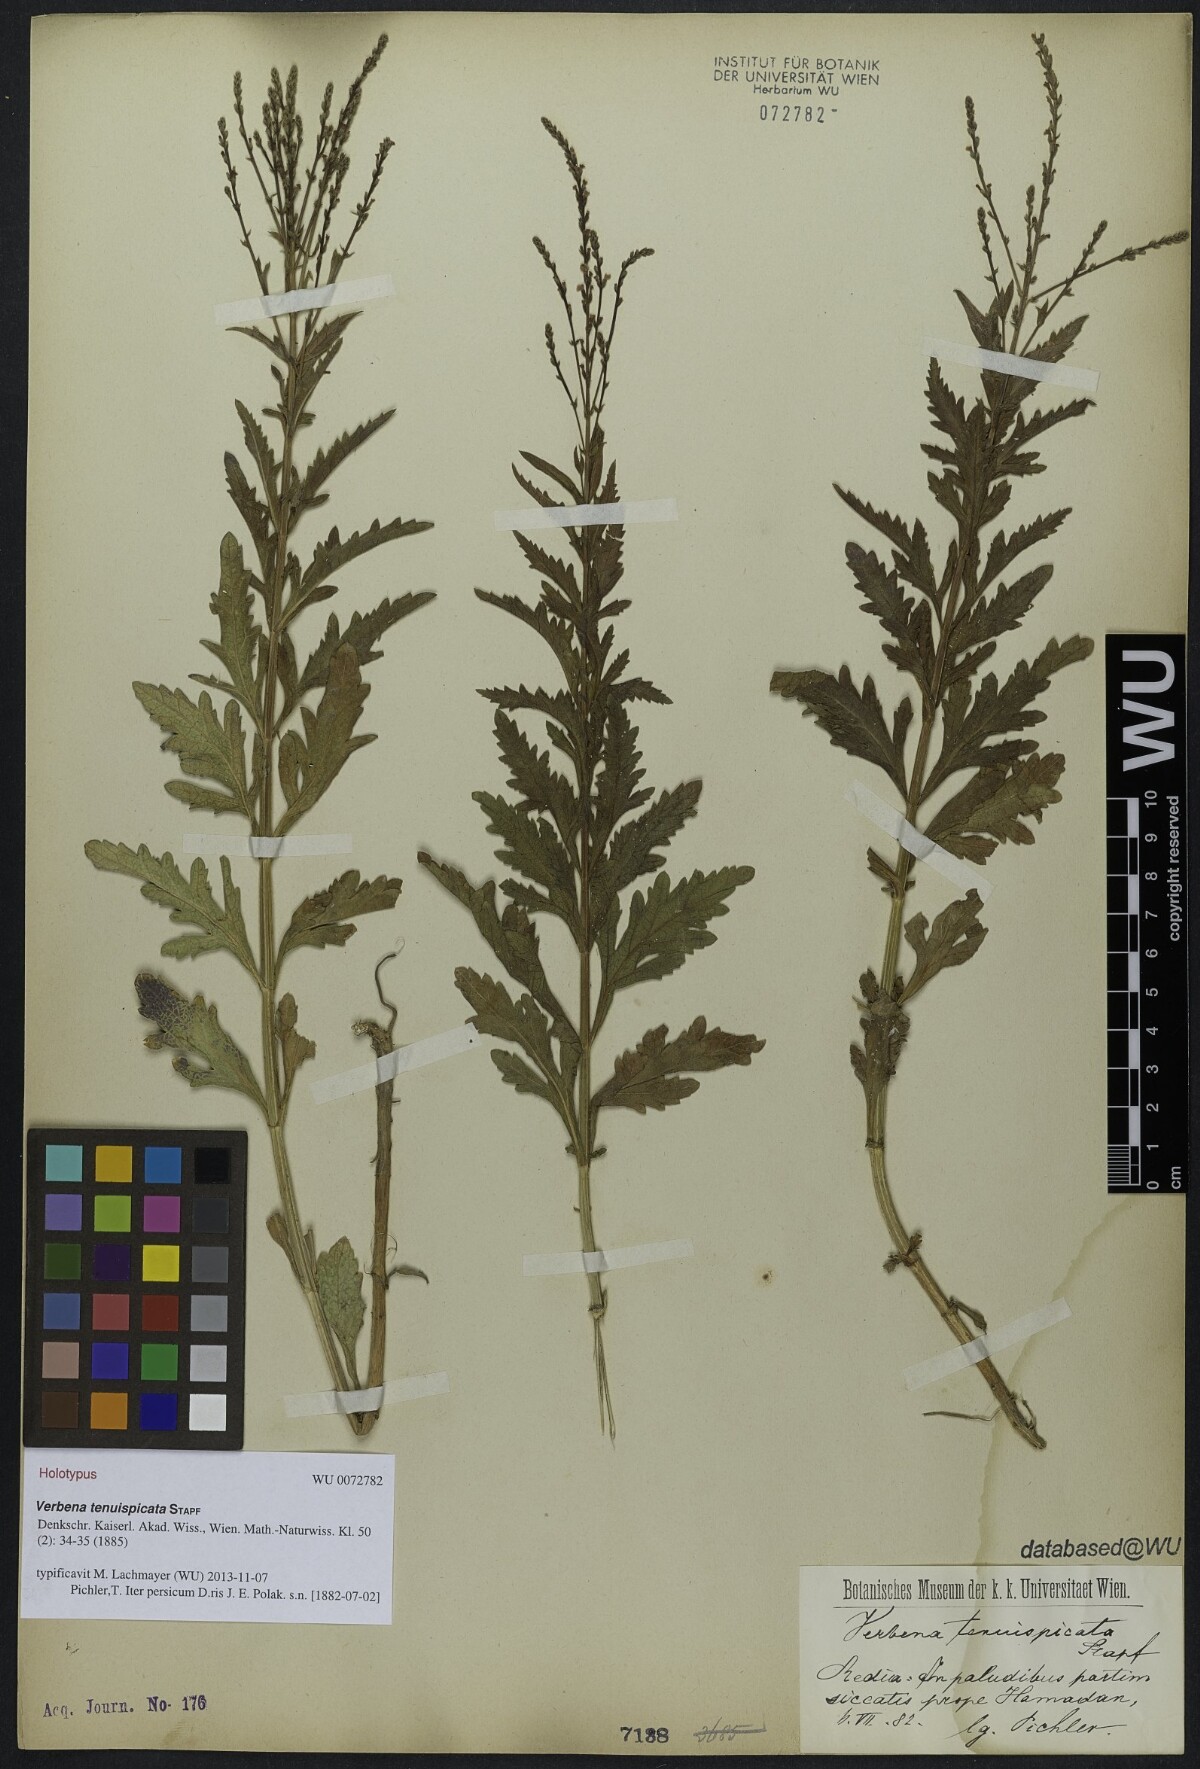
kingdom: Plantae
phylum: Tracheophyta
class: Magnoliopsida
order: Lamiales
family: Verbenaceae
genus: Verbena
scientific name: Verbena tenuispicata
